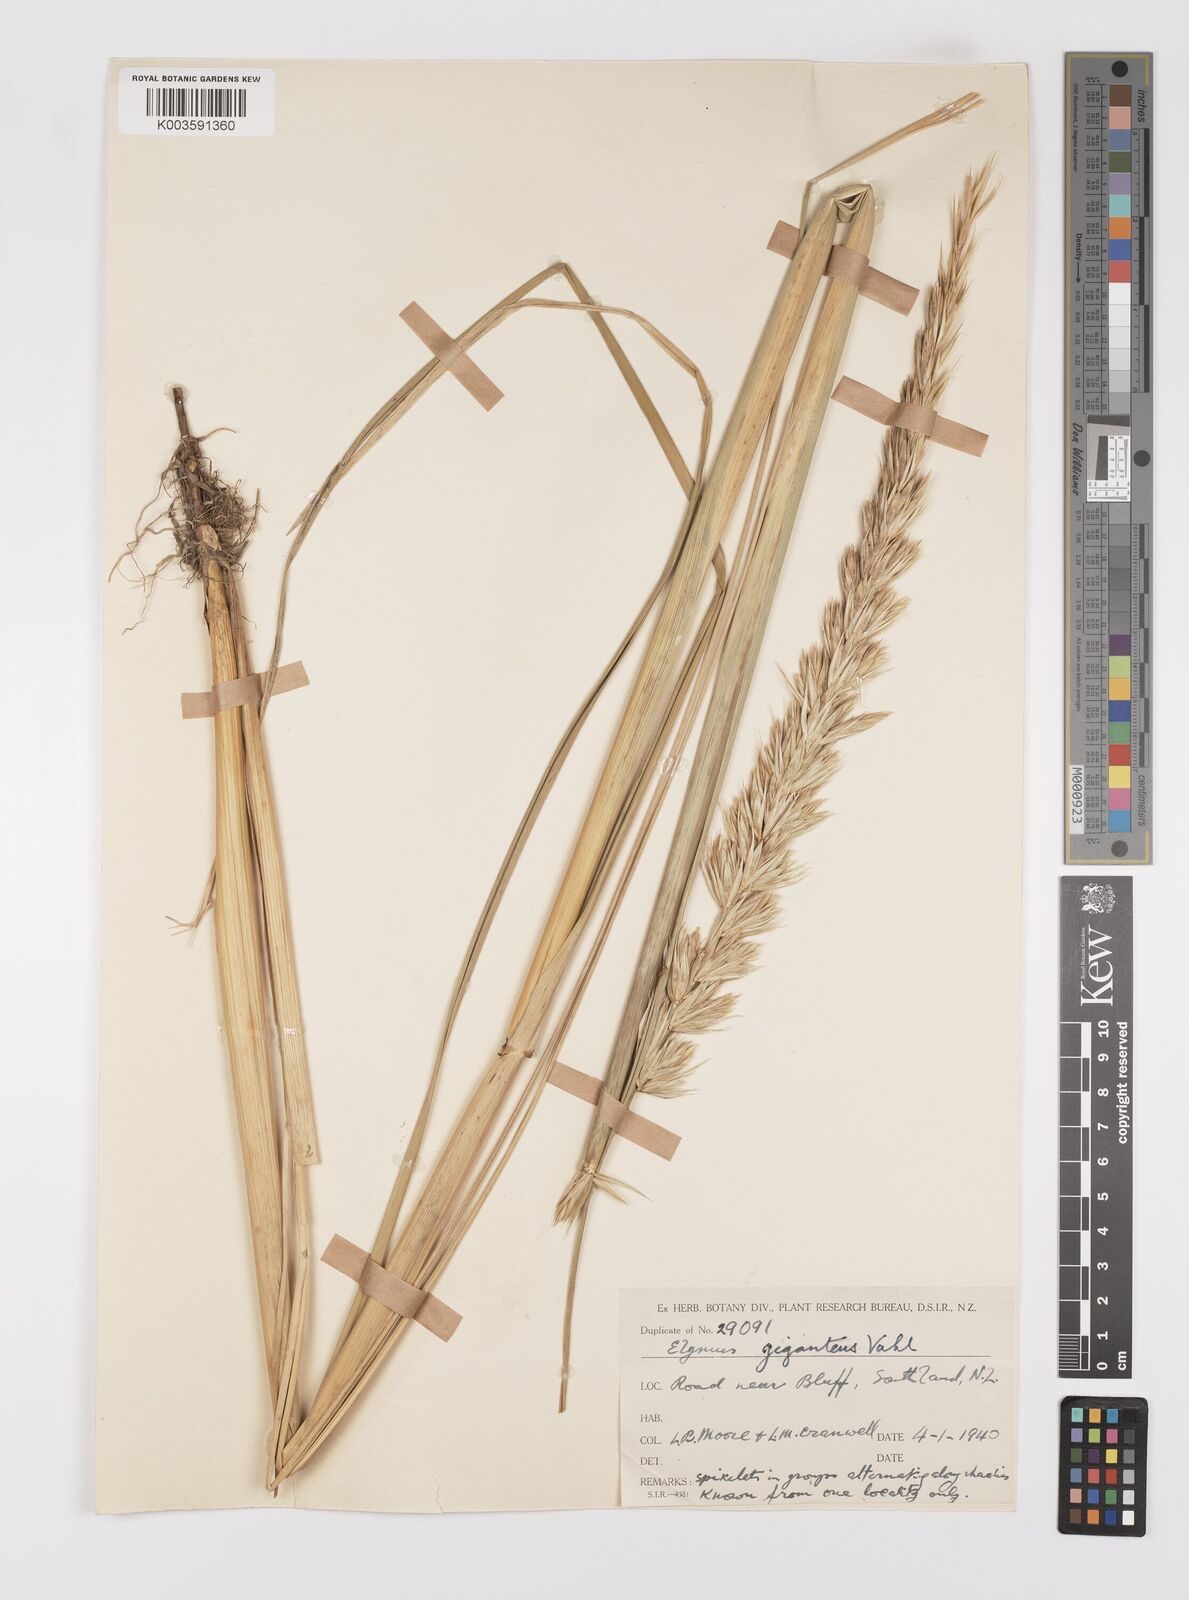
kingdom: Plantae
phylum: Tracheophyta
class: Liliopsida
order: Poales
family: Poaceae
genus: Leymus
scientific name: Leymus racemosus
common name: Mammoth wildrye
